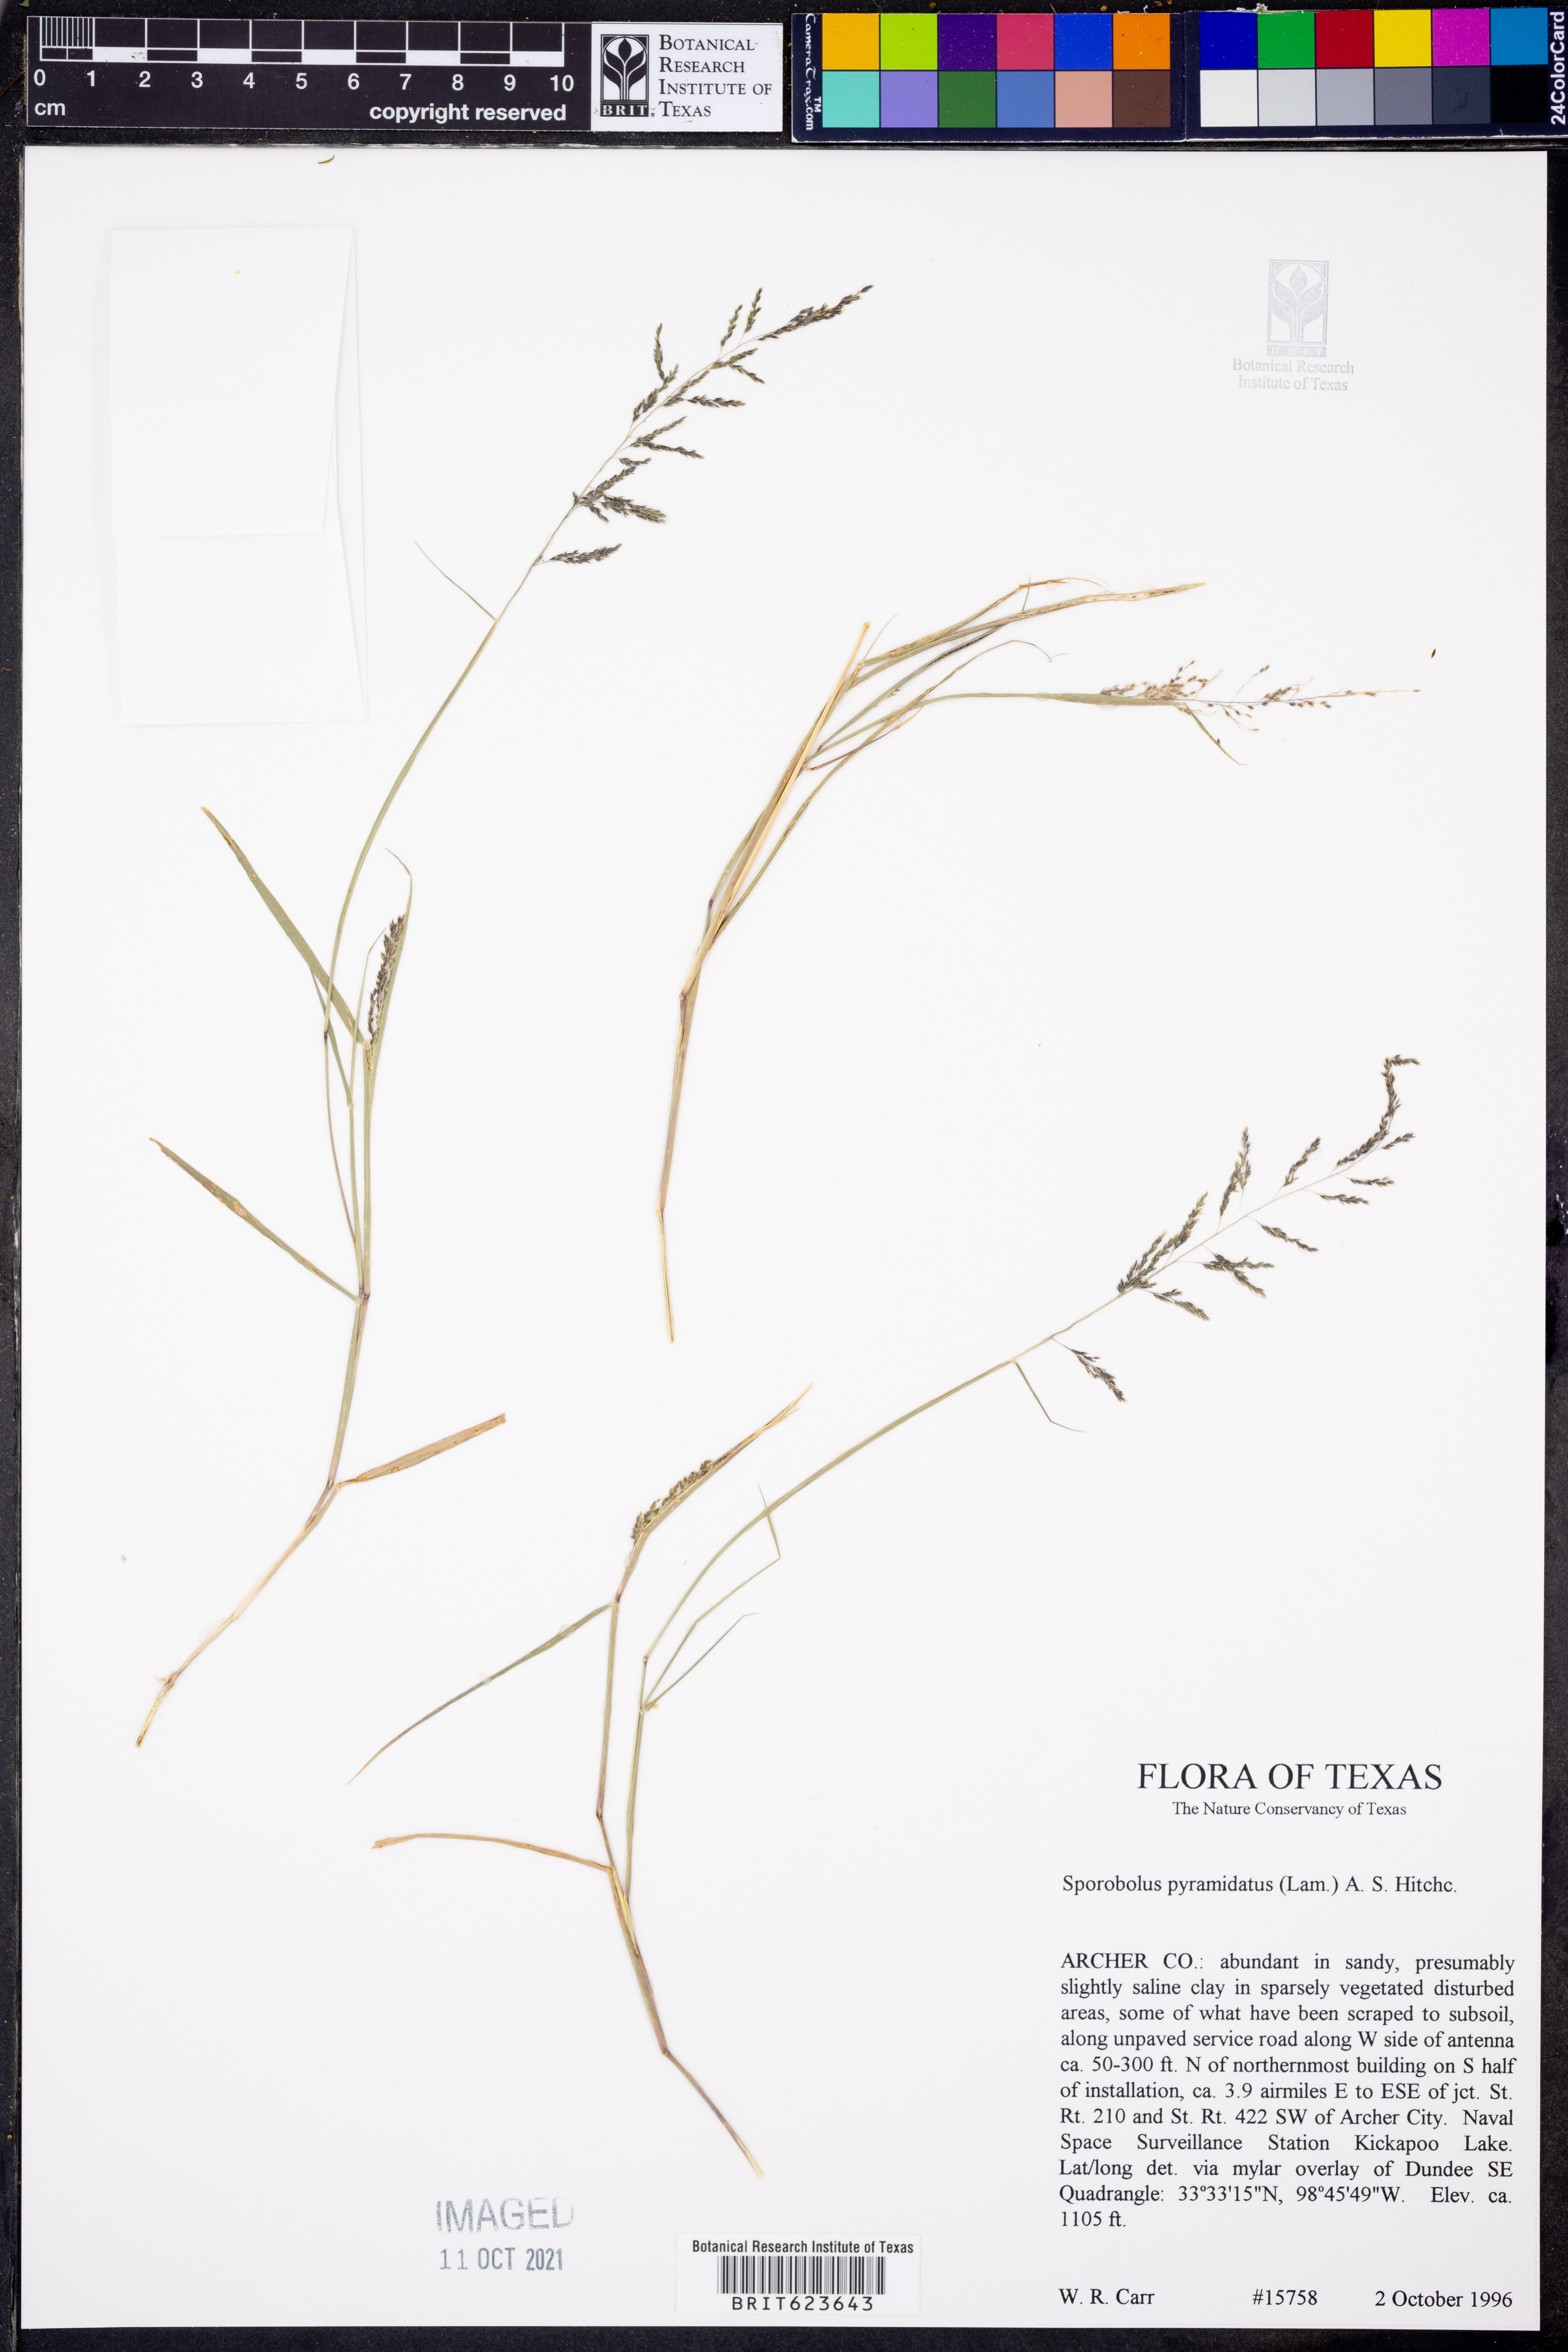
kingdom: Plantae
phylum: Tracheophyta
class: Liliopsida
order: Poales
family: Poaceae
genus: Sporobolus
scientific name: Sporobolus pyramidatus
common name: Whorled dropseed
